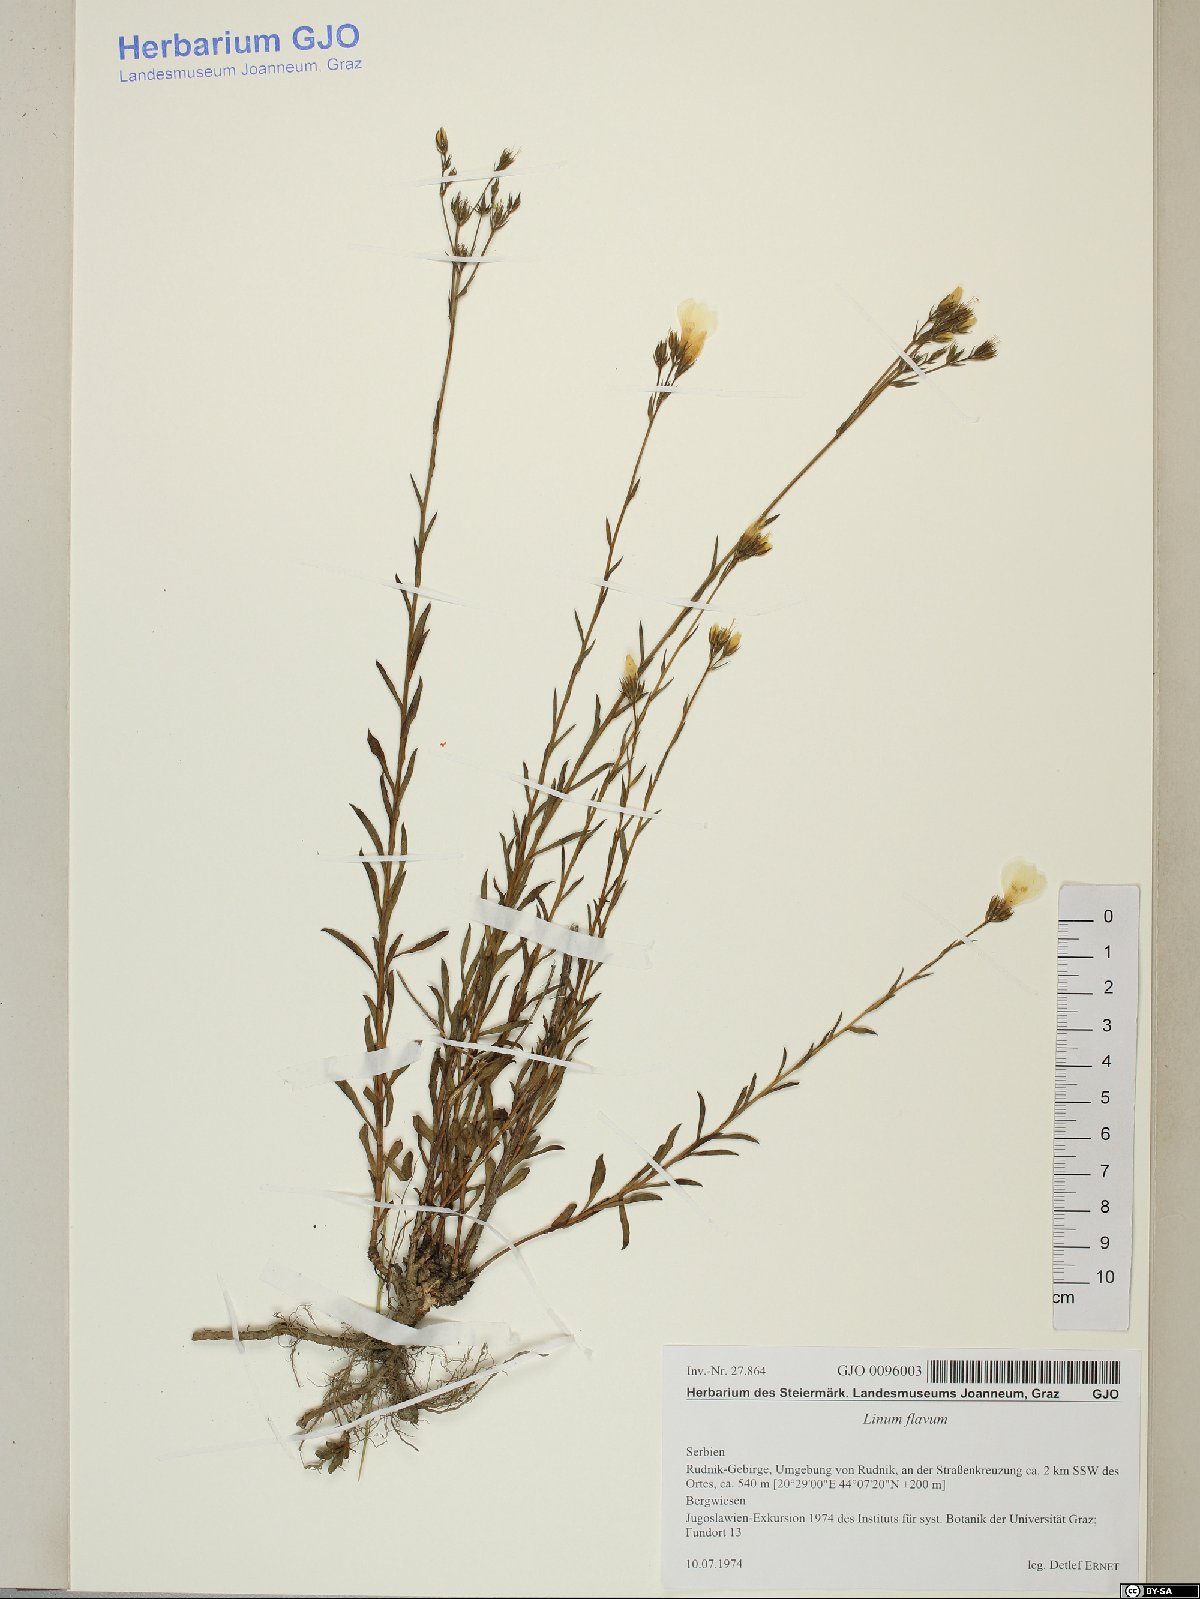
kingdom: Plantae
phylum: Tracheophyta
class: Magnoliopsida
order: Malpighiales
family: Linaceae
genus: Linum
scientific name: Linum flavum
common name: Yellow flax
